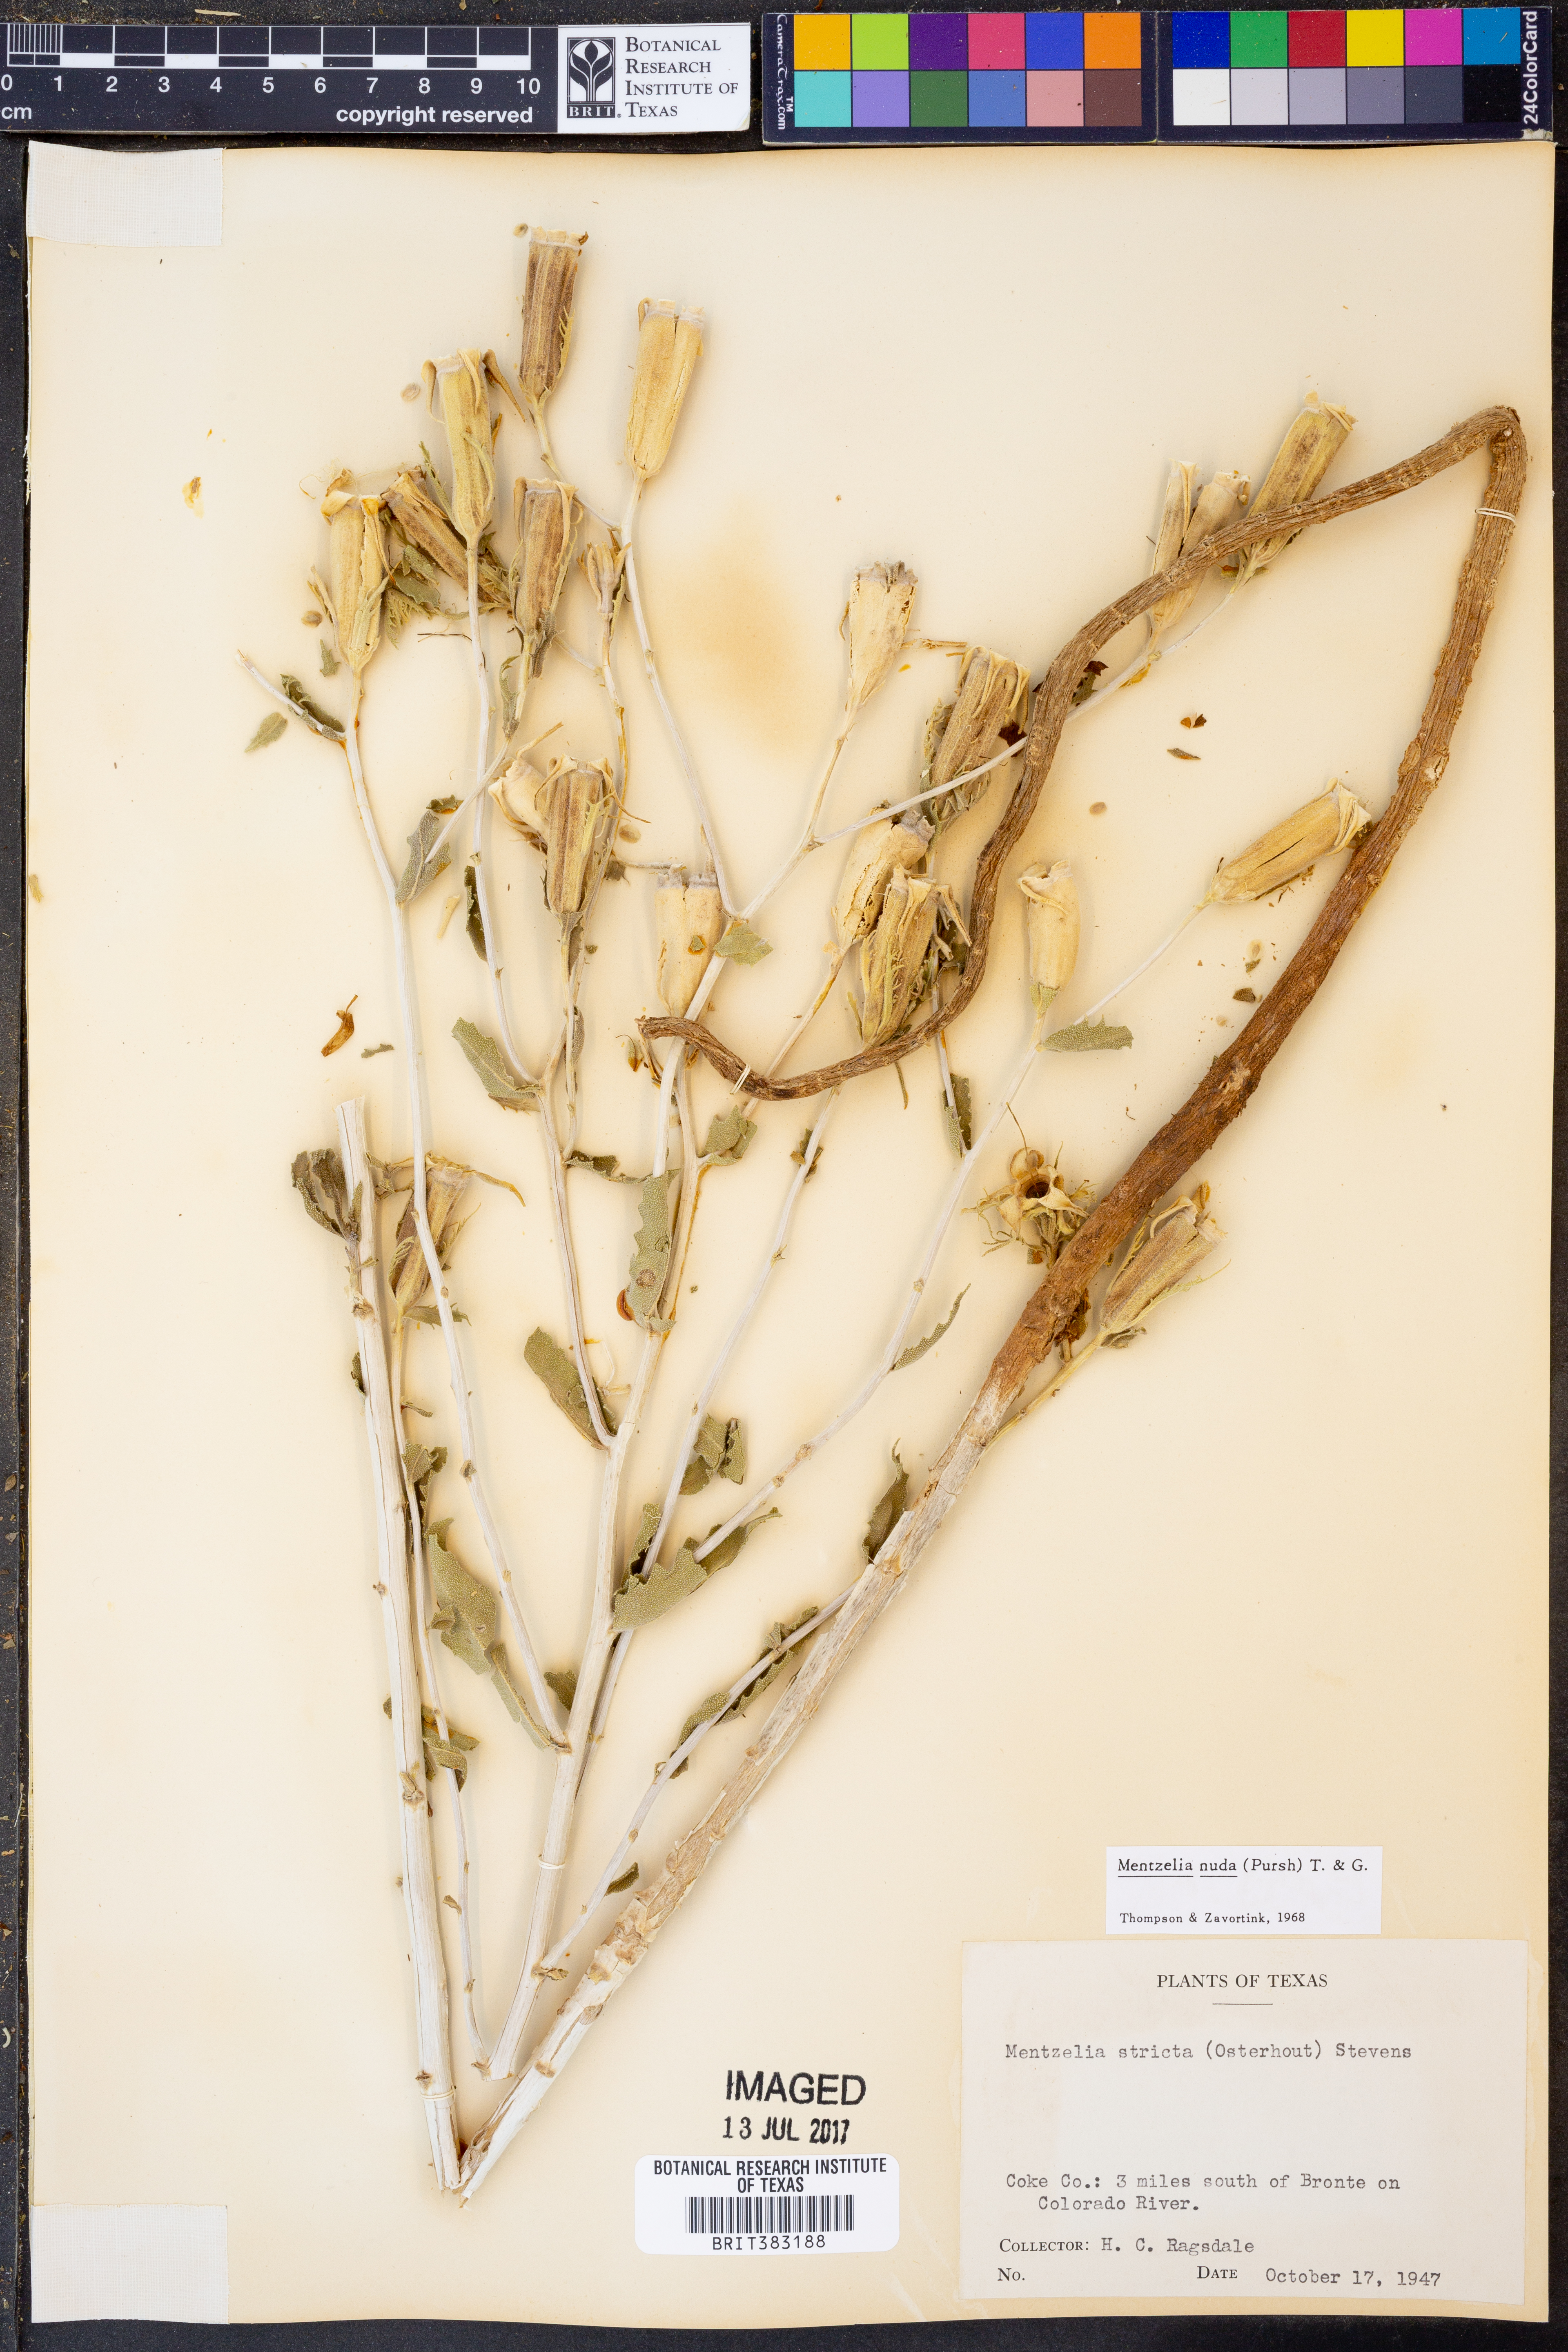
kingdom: Plantae
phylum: Tracheophyta
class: Magnoliopsida
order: Cornales
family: Loasaceae
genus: Mentzelia
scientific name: Mentzelia nuda
